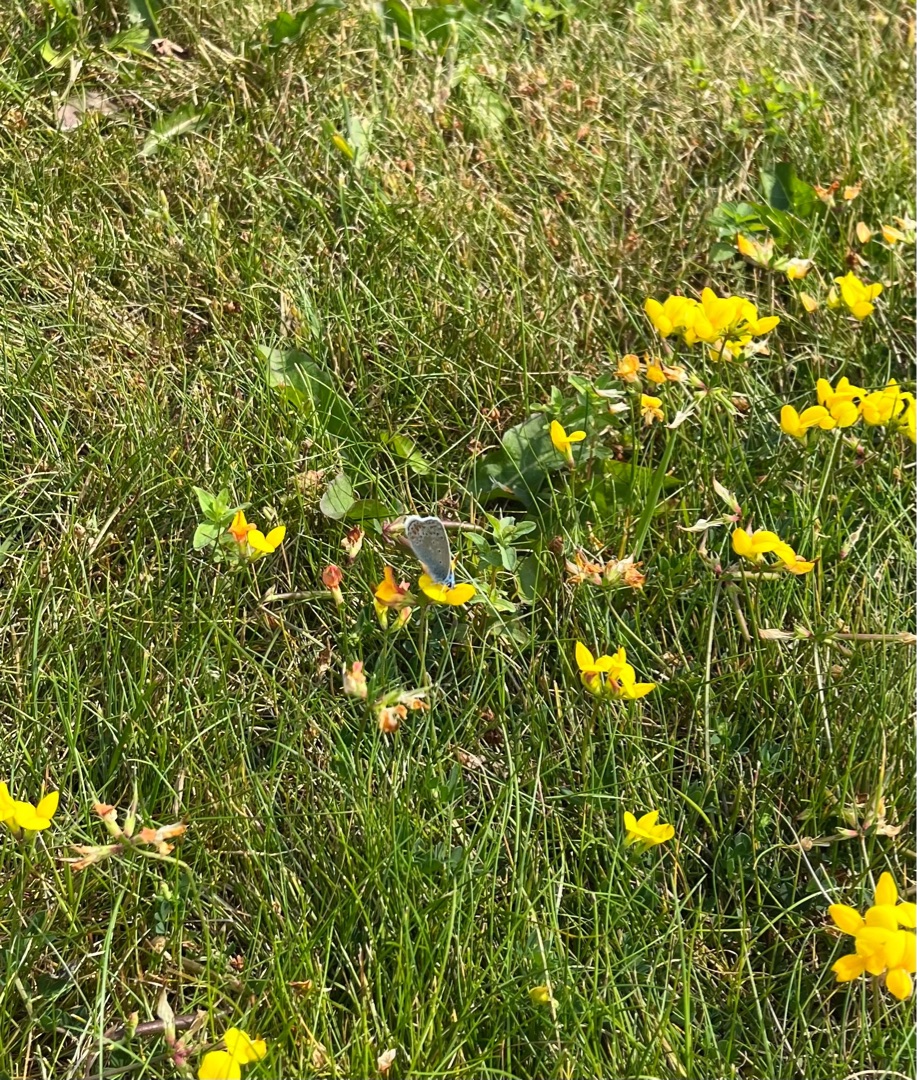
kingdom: Animalia
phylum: Arthropoda
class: Insecta
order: Lepidoptera
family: Lycaenidae
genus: Polyommatus
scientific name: Polyommatus icarus
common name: Almindelig blåfugl
